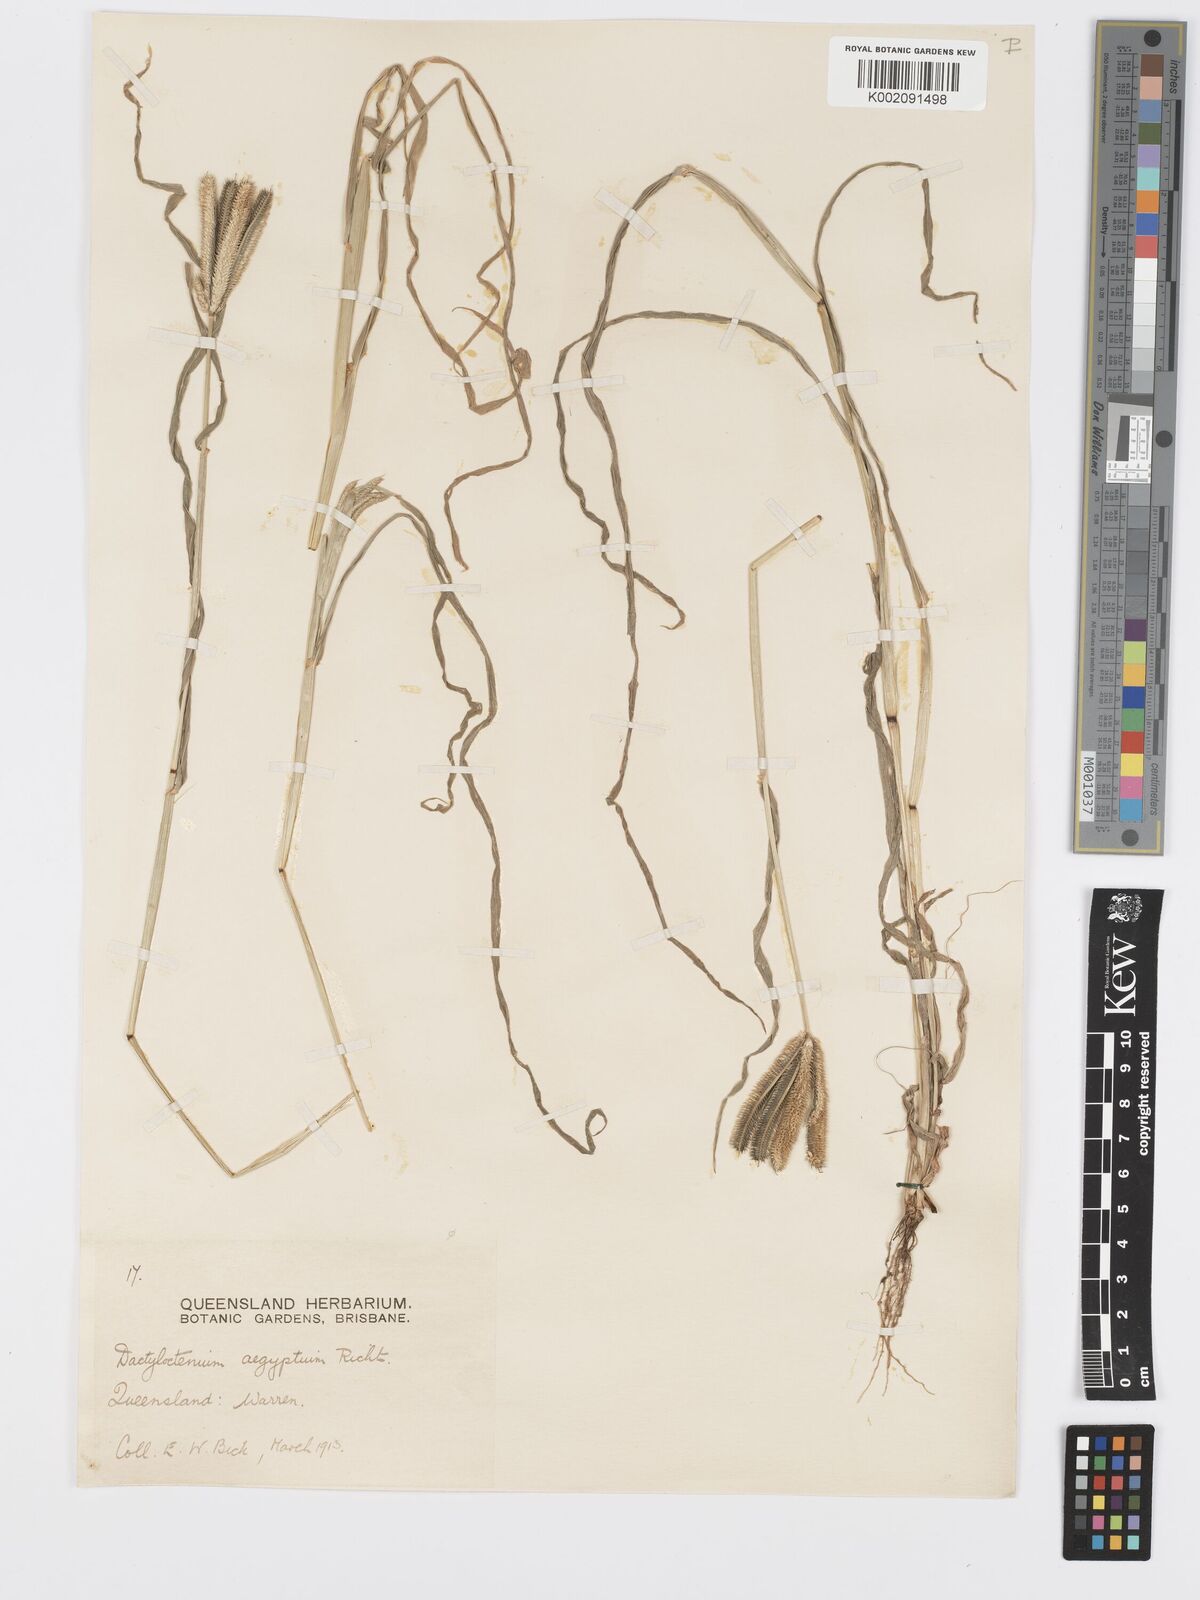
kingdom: Plantae
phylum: Tracheophyta
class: Liliopsida
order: Poales
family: Poaceae
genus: Dactyloctenium
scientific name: Dactyloctenium aegyptium
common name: Egyptian grass
